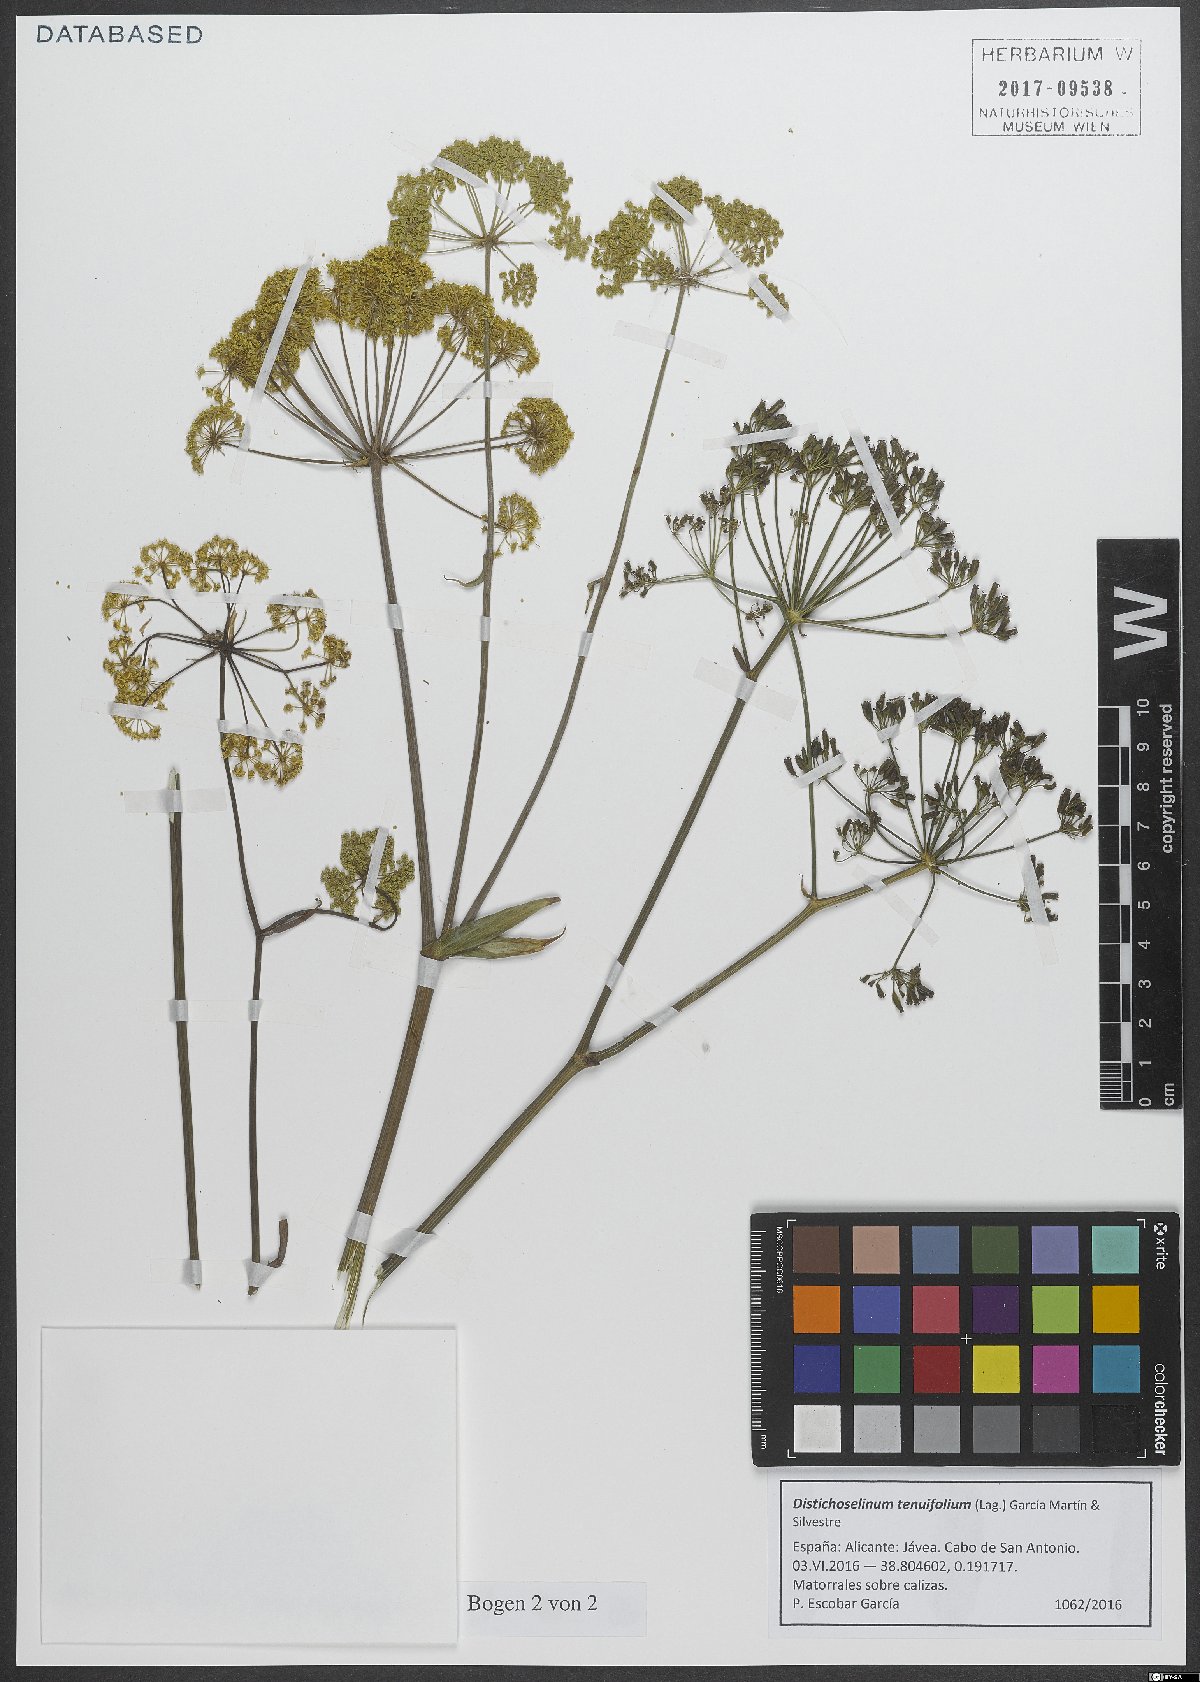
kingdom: Plantae
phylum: Tracheophyta
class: Magnoliopsida
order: Apiales
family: Apiaceae
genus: Thapsia
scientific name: Thapsia tenuifolia
